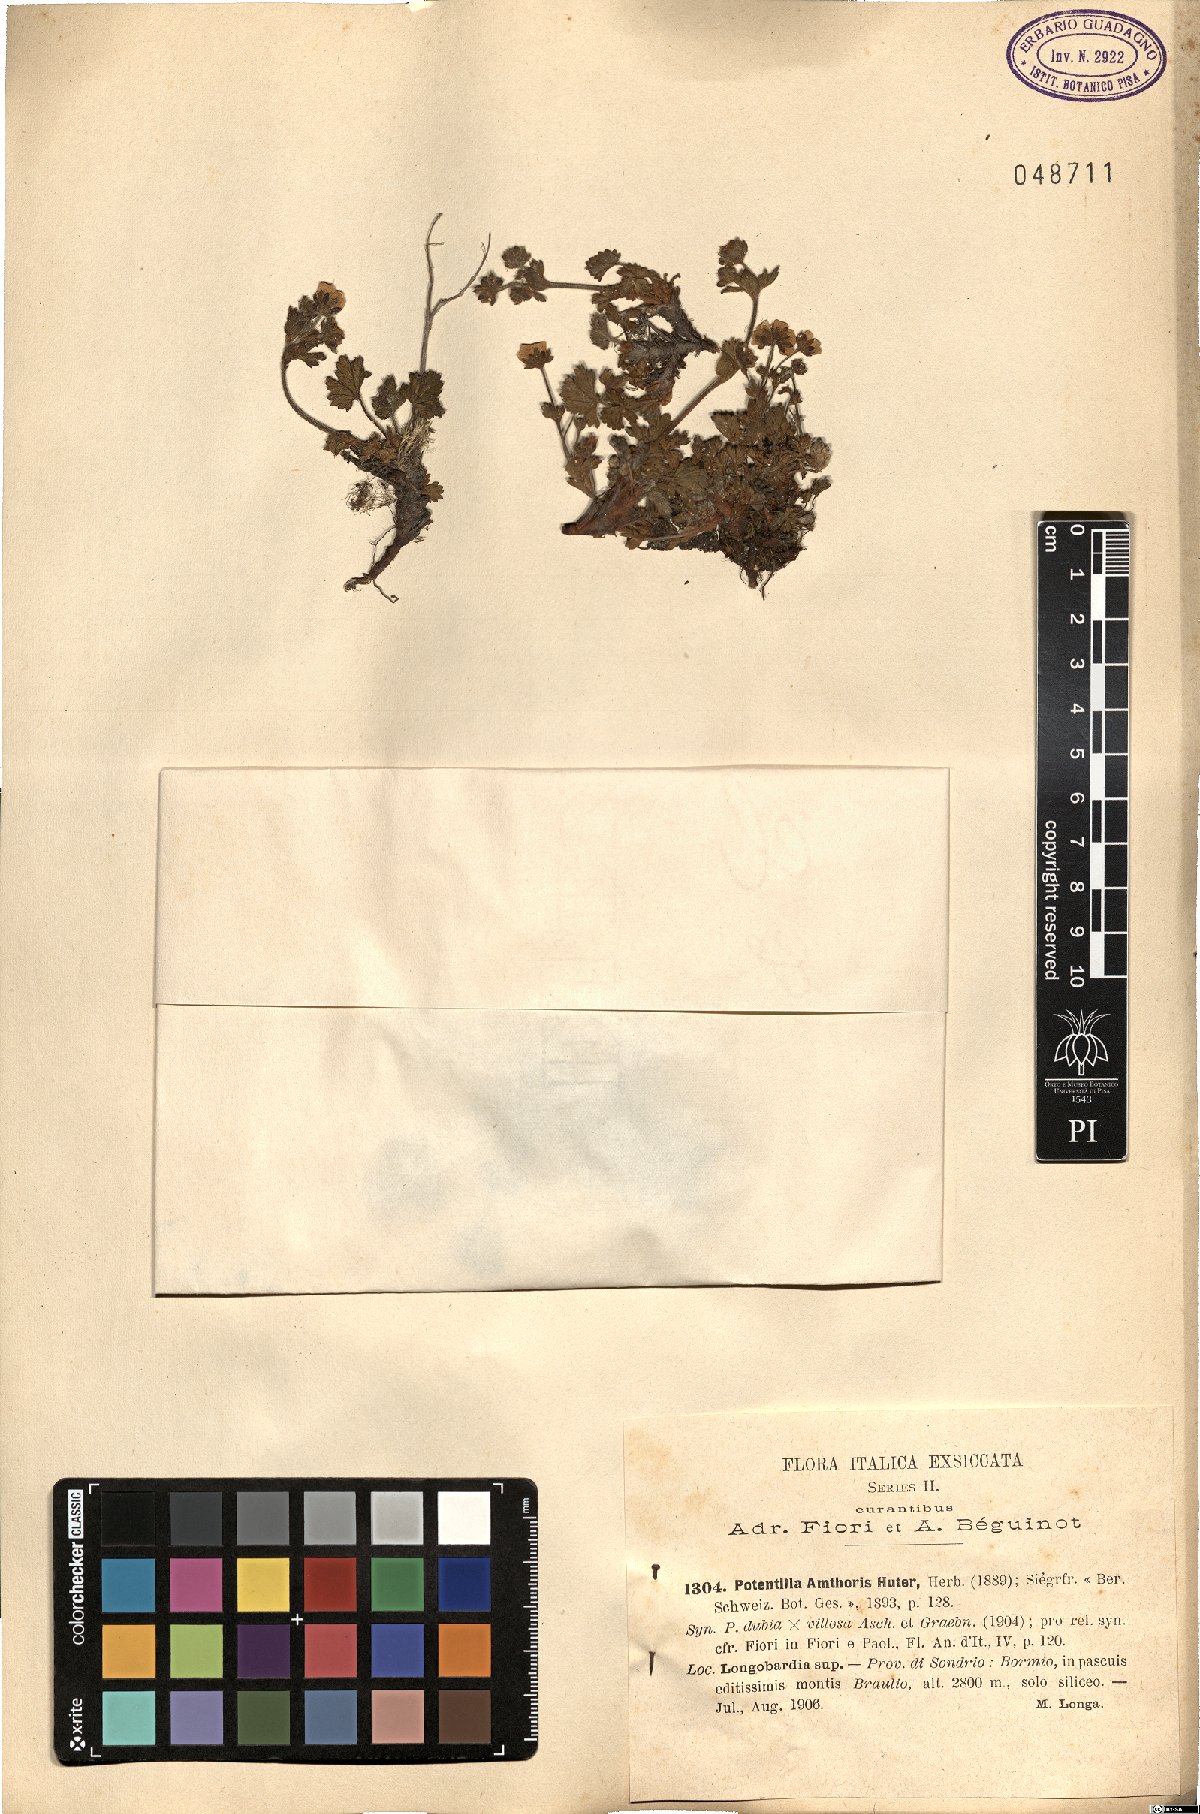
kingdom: Plantae
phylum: Tracheophyta
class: Magnoliopsida
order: Rosales
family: Rosaceae
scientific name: Rosaceae
